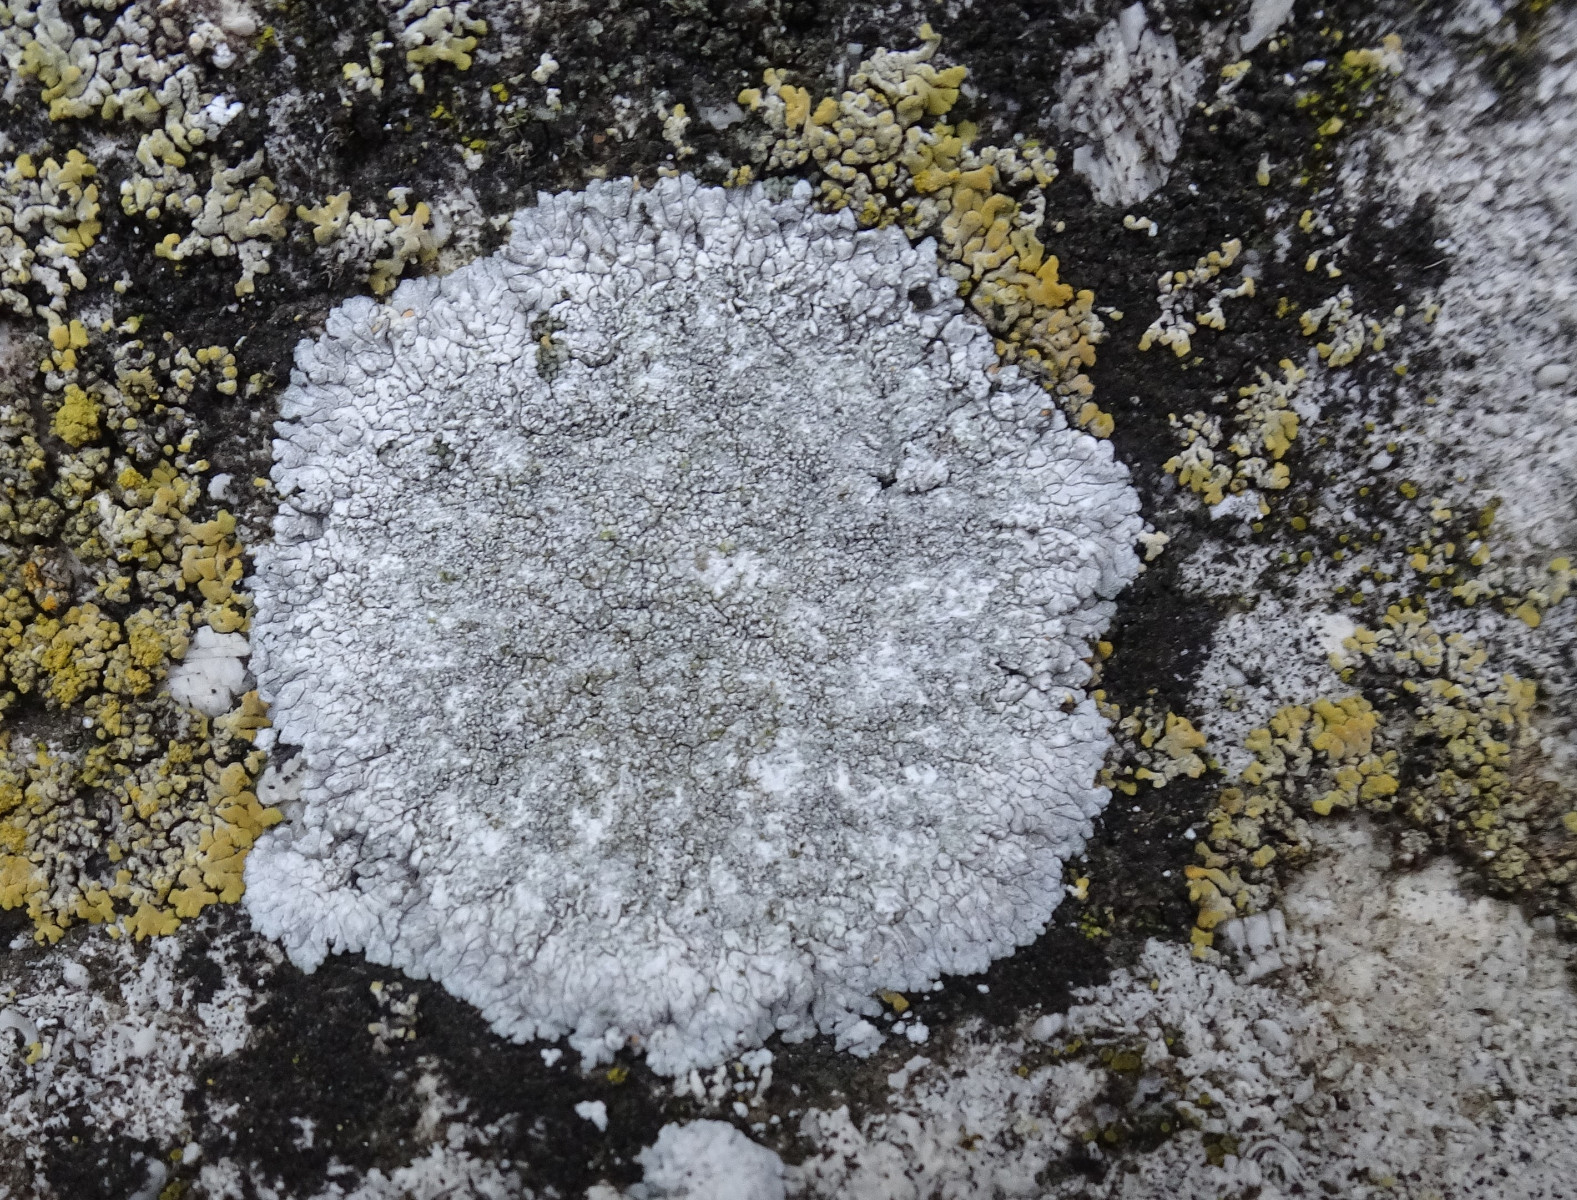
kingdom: Fungi
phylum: Ascomycota
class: Lecanoromycetes
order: Teloschistales
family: Teloschistaceae
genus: Kuettlingeria
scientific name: Kuettlingeria teicholyta
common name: grå orangelav
